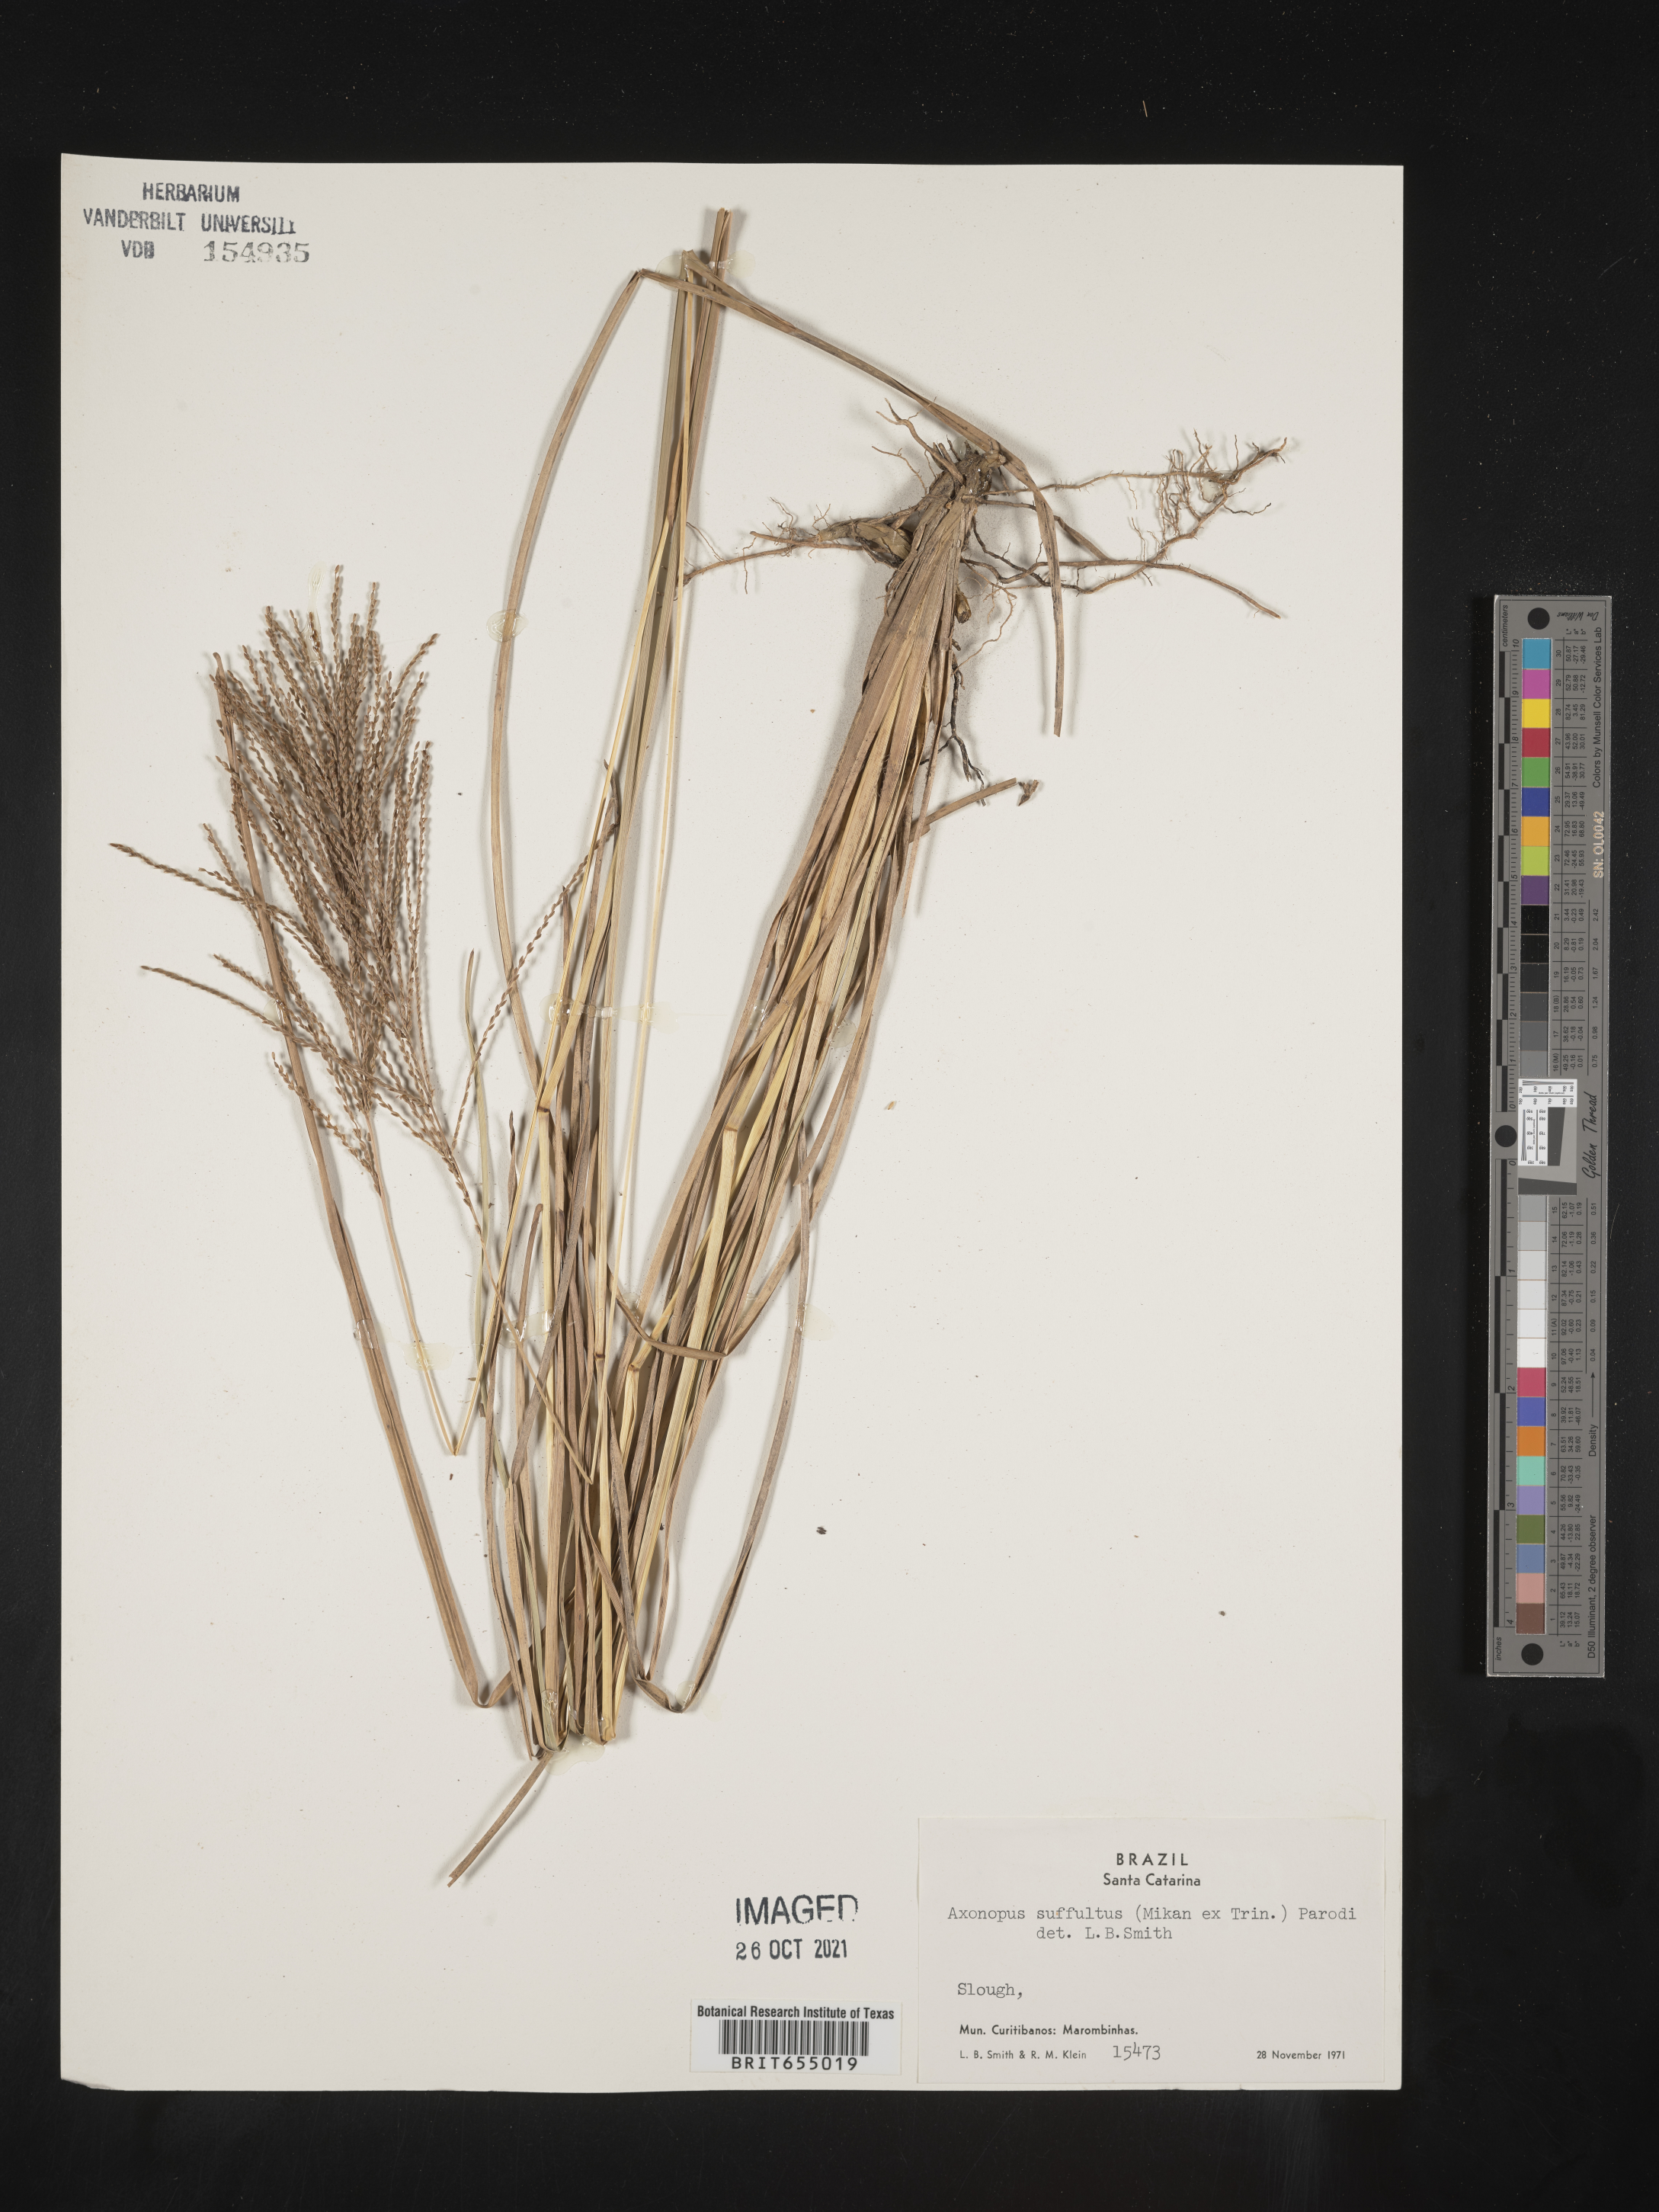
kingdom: Plantae
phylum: Tracheophyta
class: Liliopsida
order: Poales
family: Poaceae
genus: Axonopus
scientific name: Axonopus
